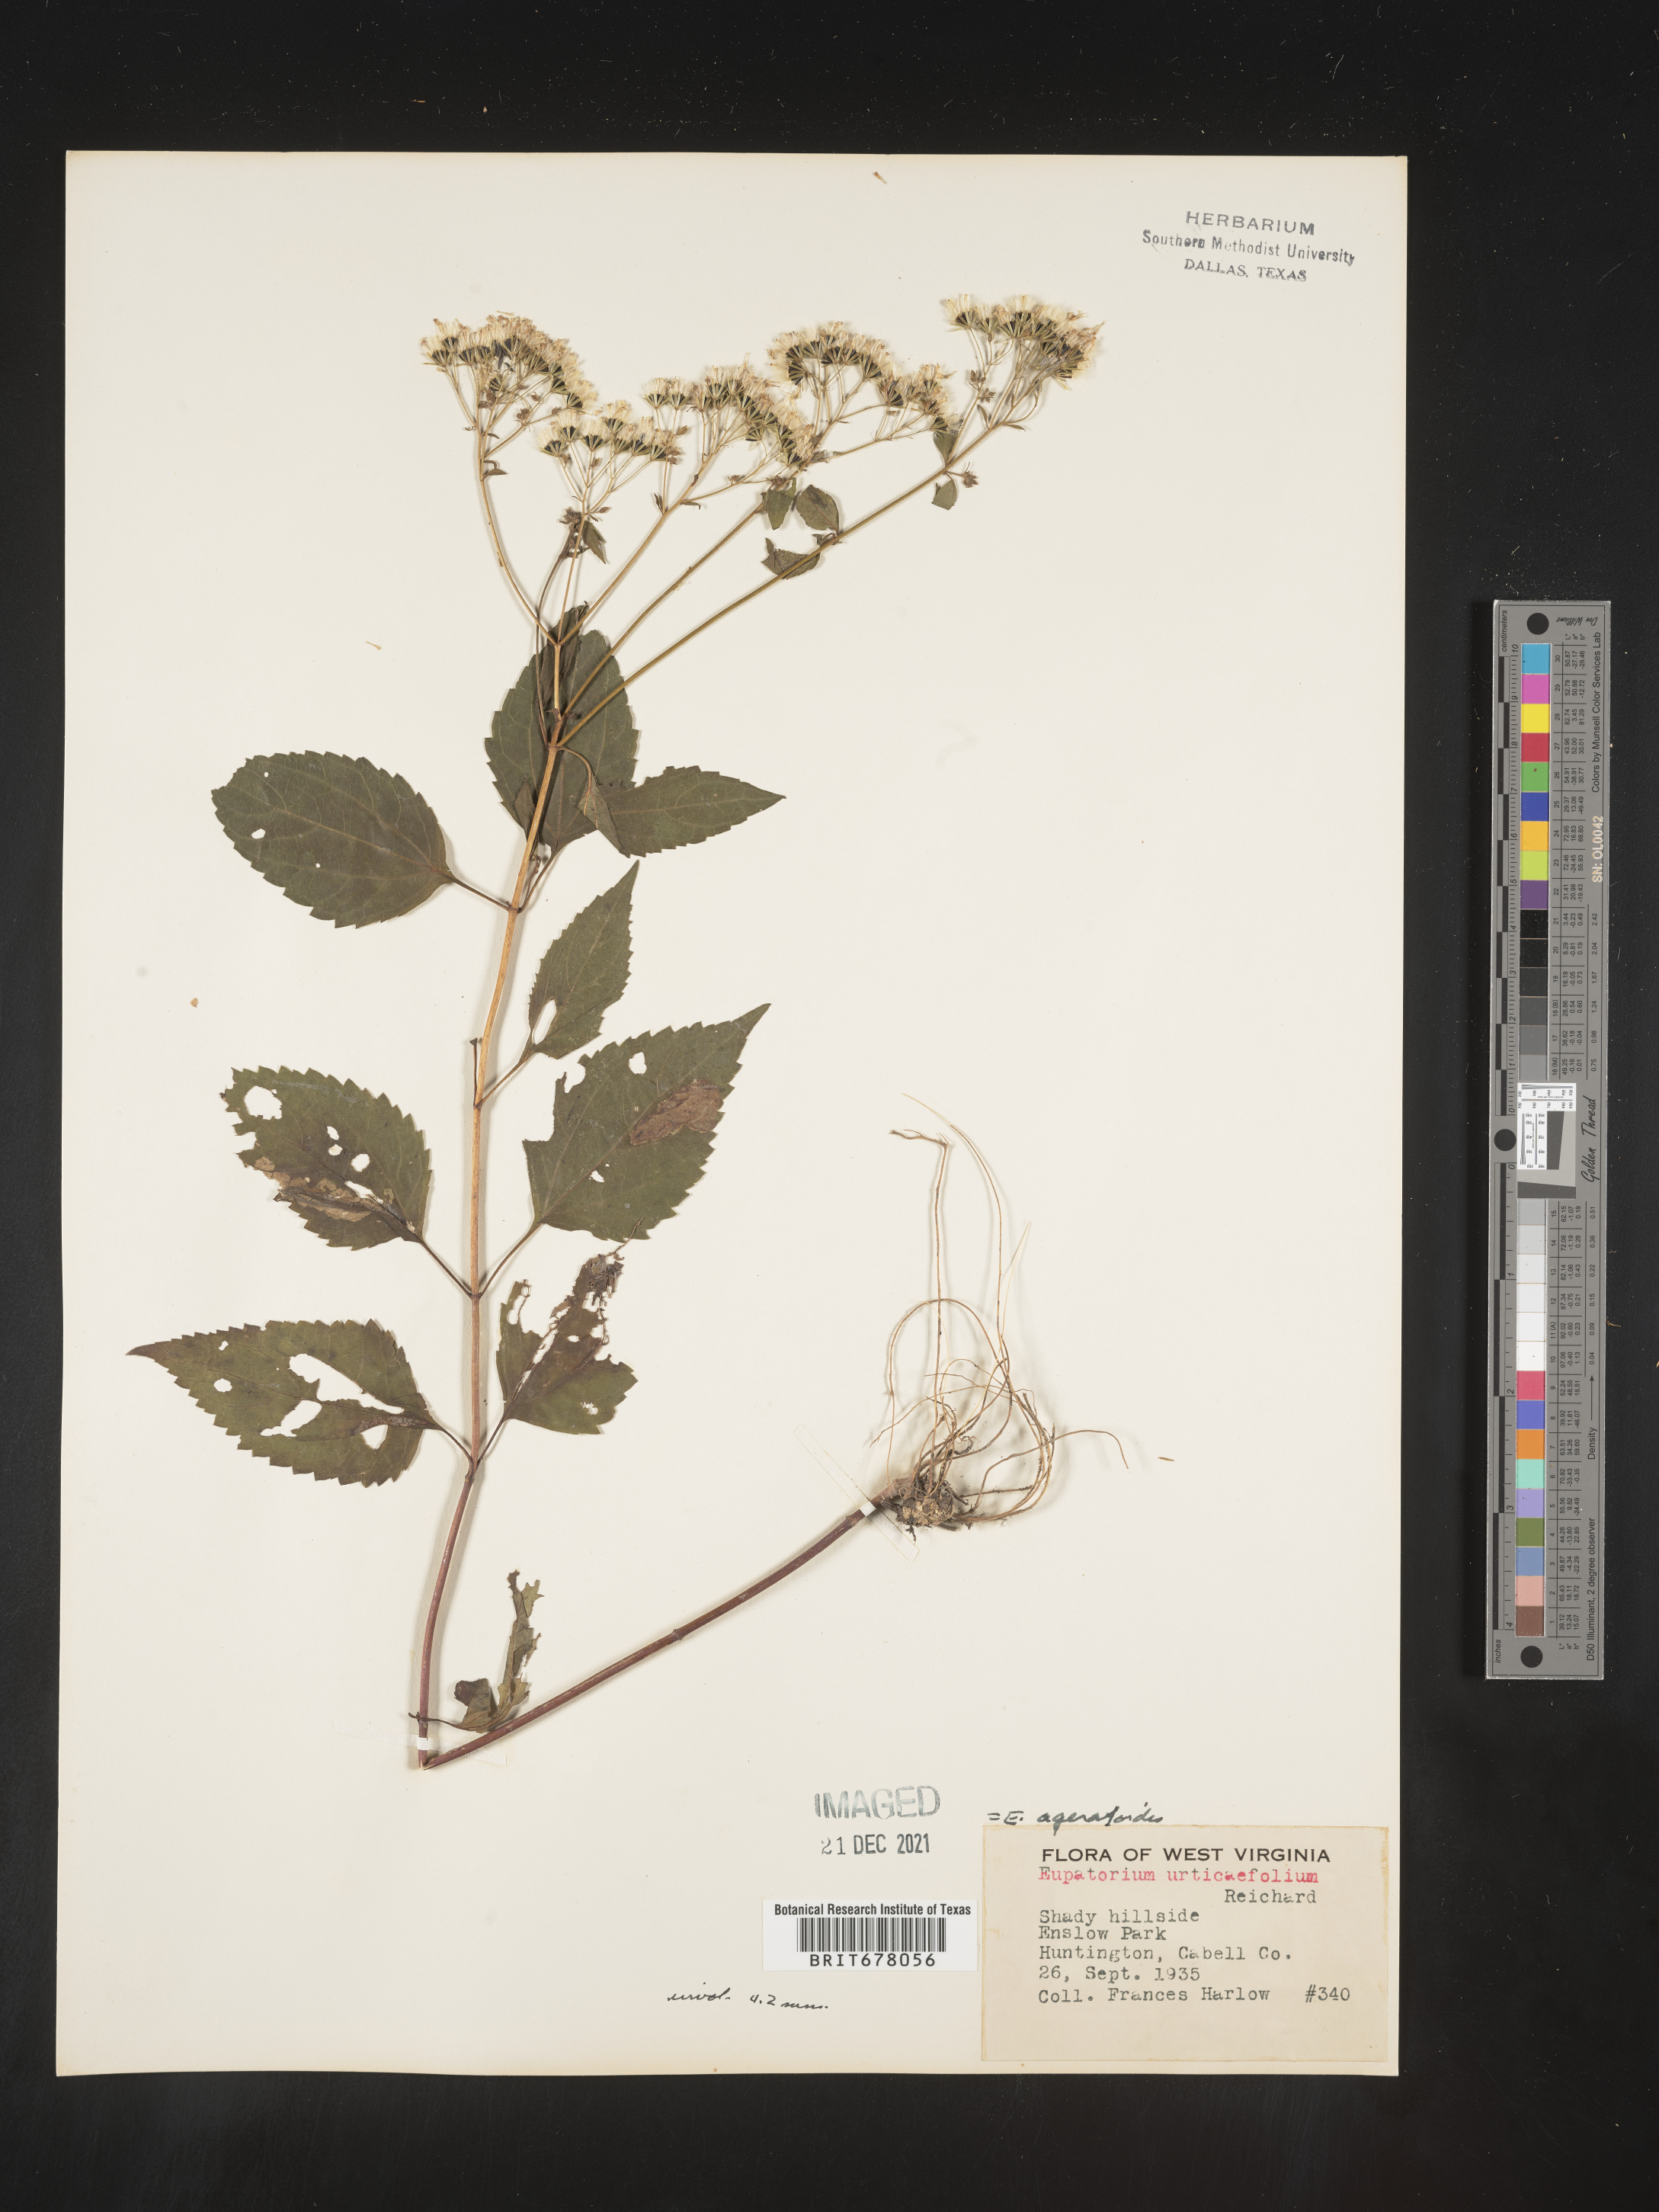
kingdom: Plantae
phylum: Tracheophyta
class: Magnoliopsida
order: Asterales
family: Asteraceae
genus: Eupatorium
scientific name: Eupatorium
